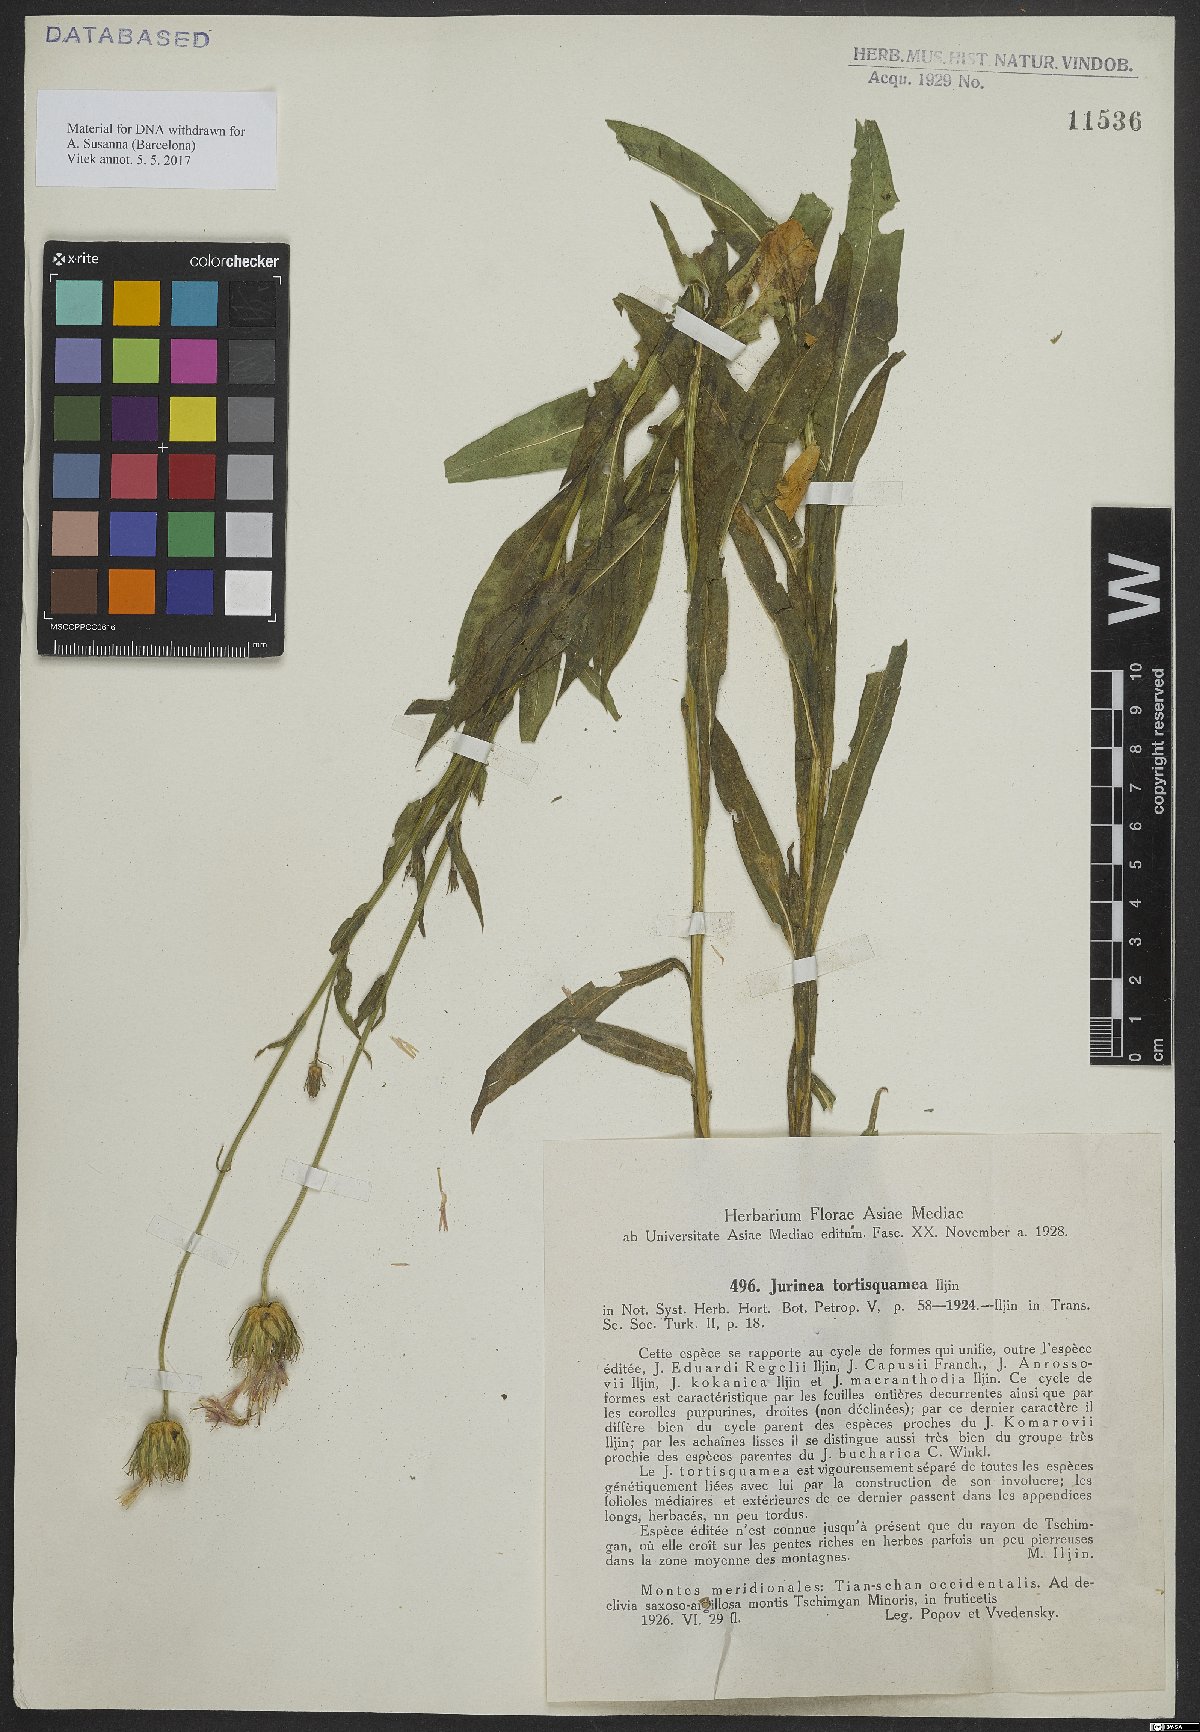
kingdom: Plantae
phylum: Tracheophyta
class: Magnoliopsida
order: Asterales
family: Asteraceae
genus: Jurinea
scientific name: Jurinea tortisquamea
